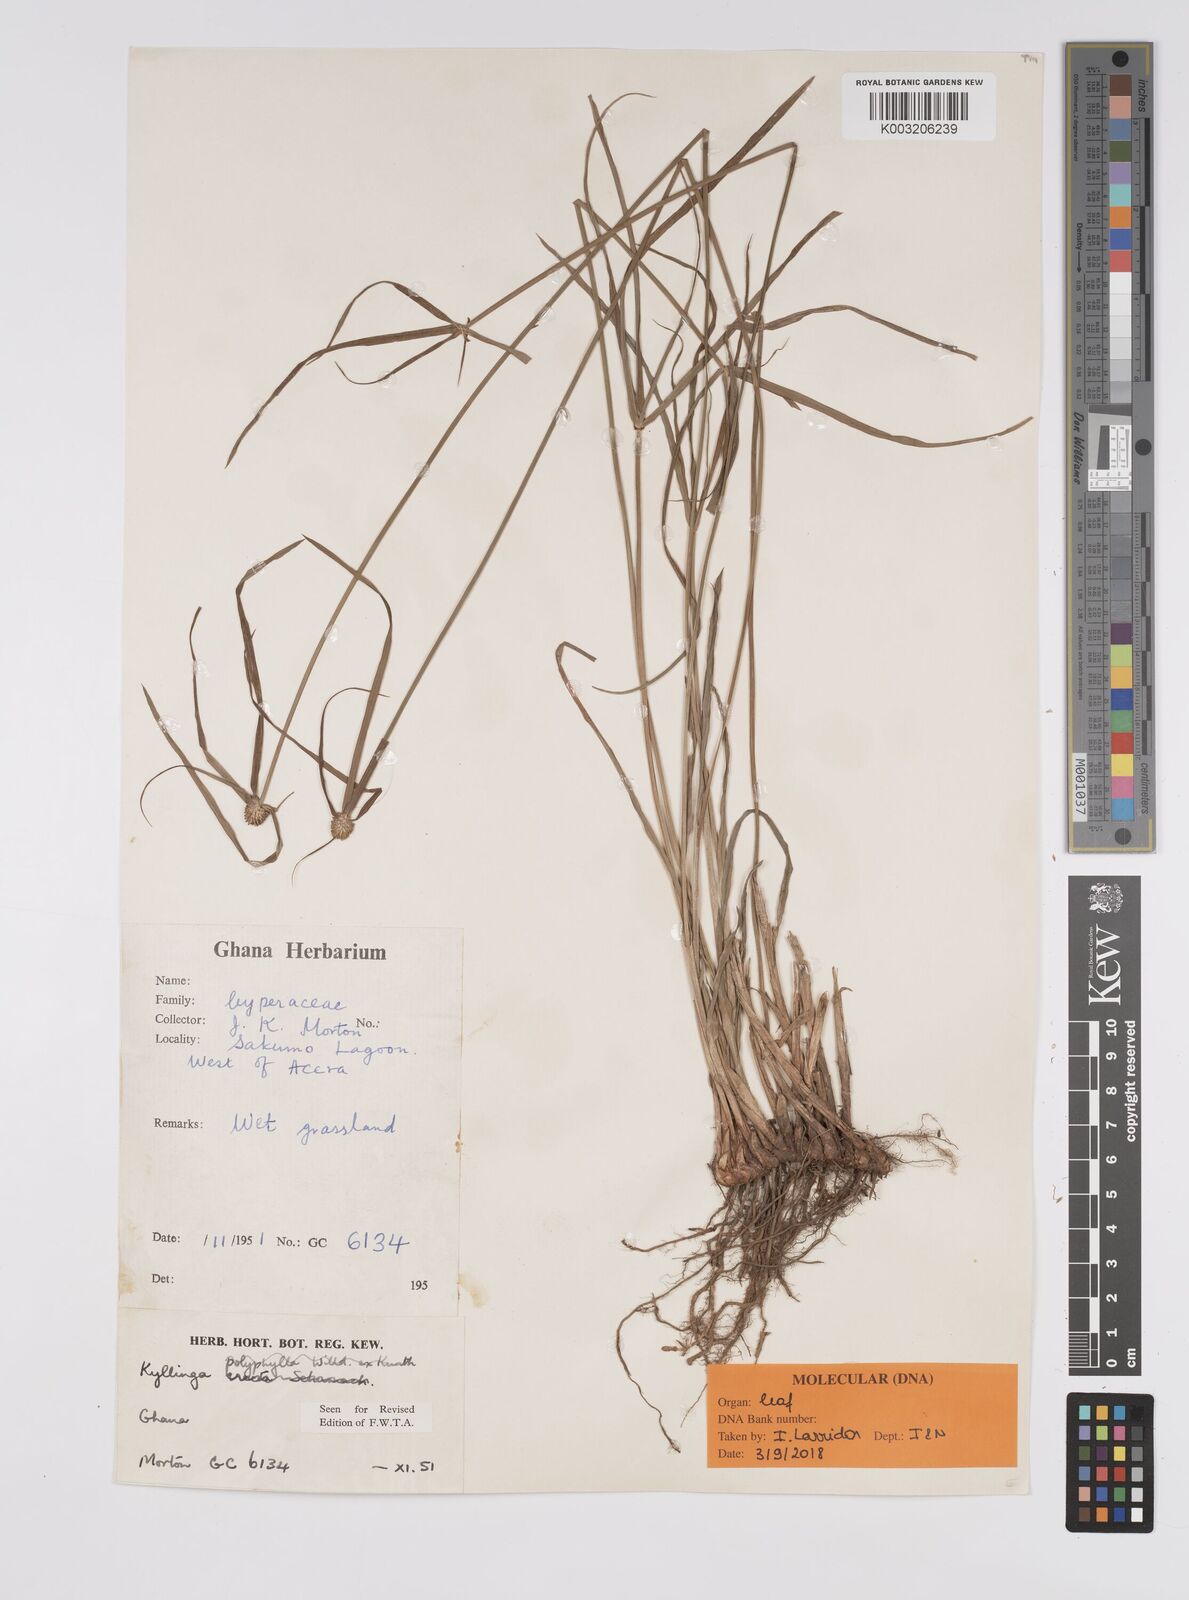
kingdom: Plantae
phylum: Tracheophyta
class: Liliopsida
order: Poales
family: Cyperaceae
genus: Cyperus
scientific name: Cyperus
